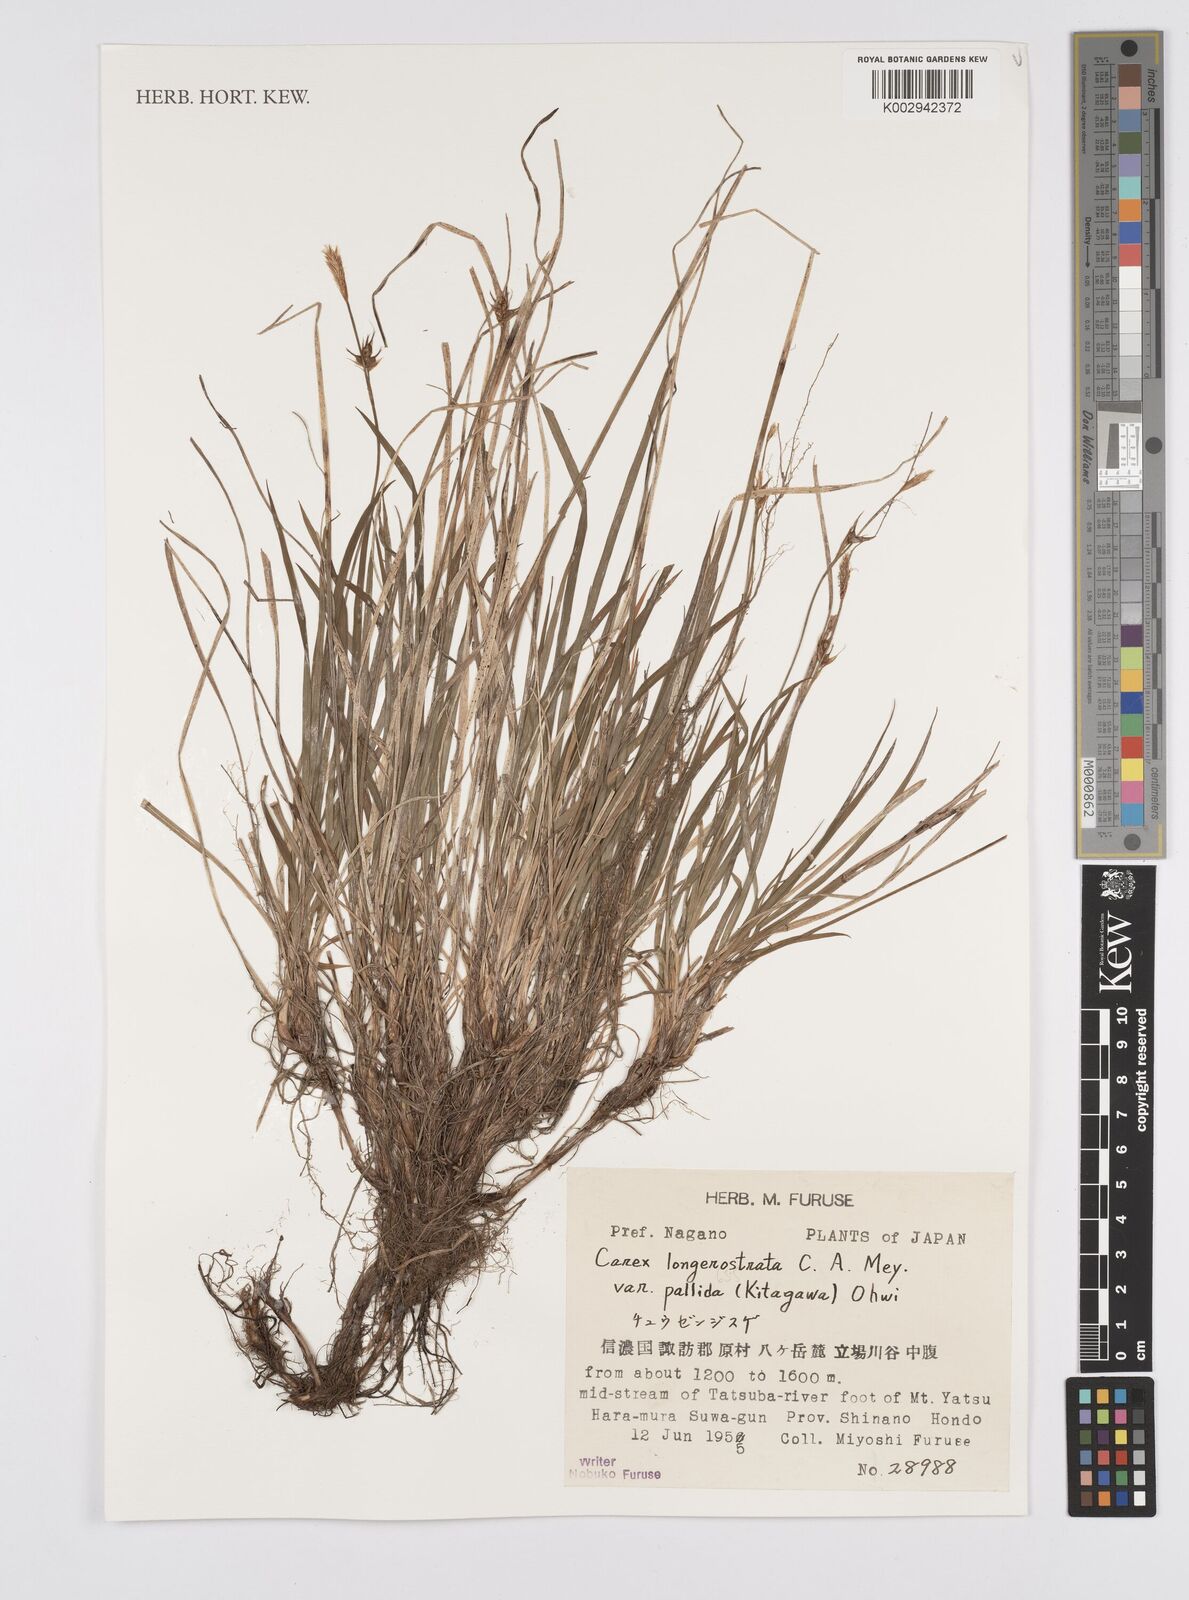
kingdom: Plantae
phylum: Tracheophyta
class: Liliopsida
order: Poales
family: Cyperaceae
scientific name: Cyperaceae
